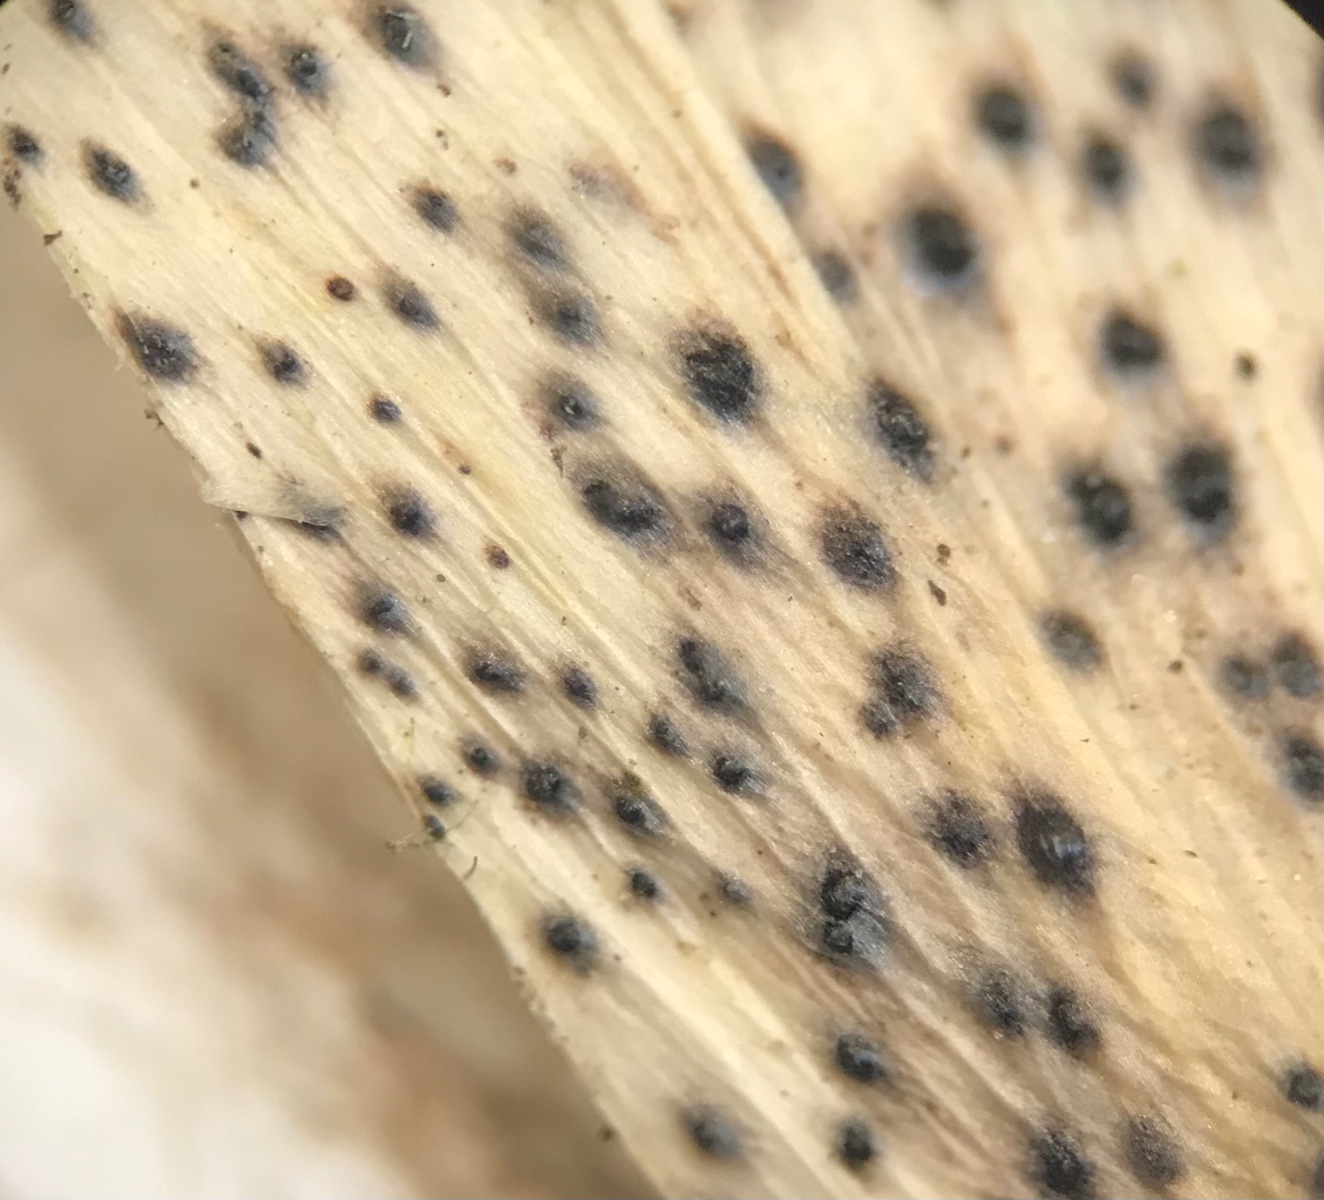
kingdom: Fungi
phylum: Ascomycota
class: Sordariomycetes
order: Diaporthales
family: Diaporthaceae
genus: Diaporthe
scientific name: Diaporthe samaricola
